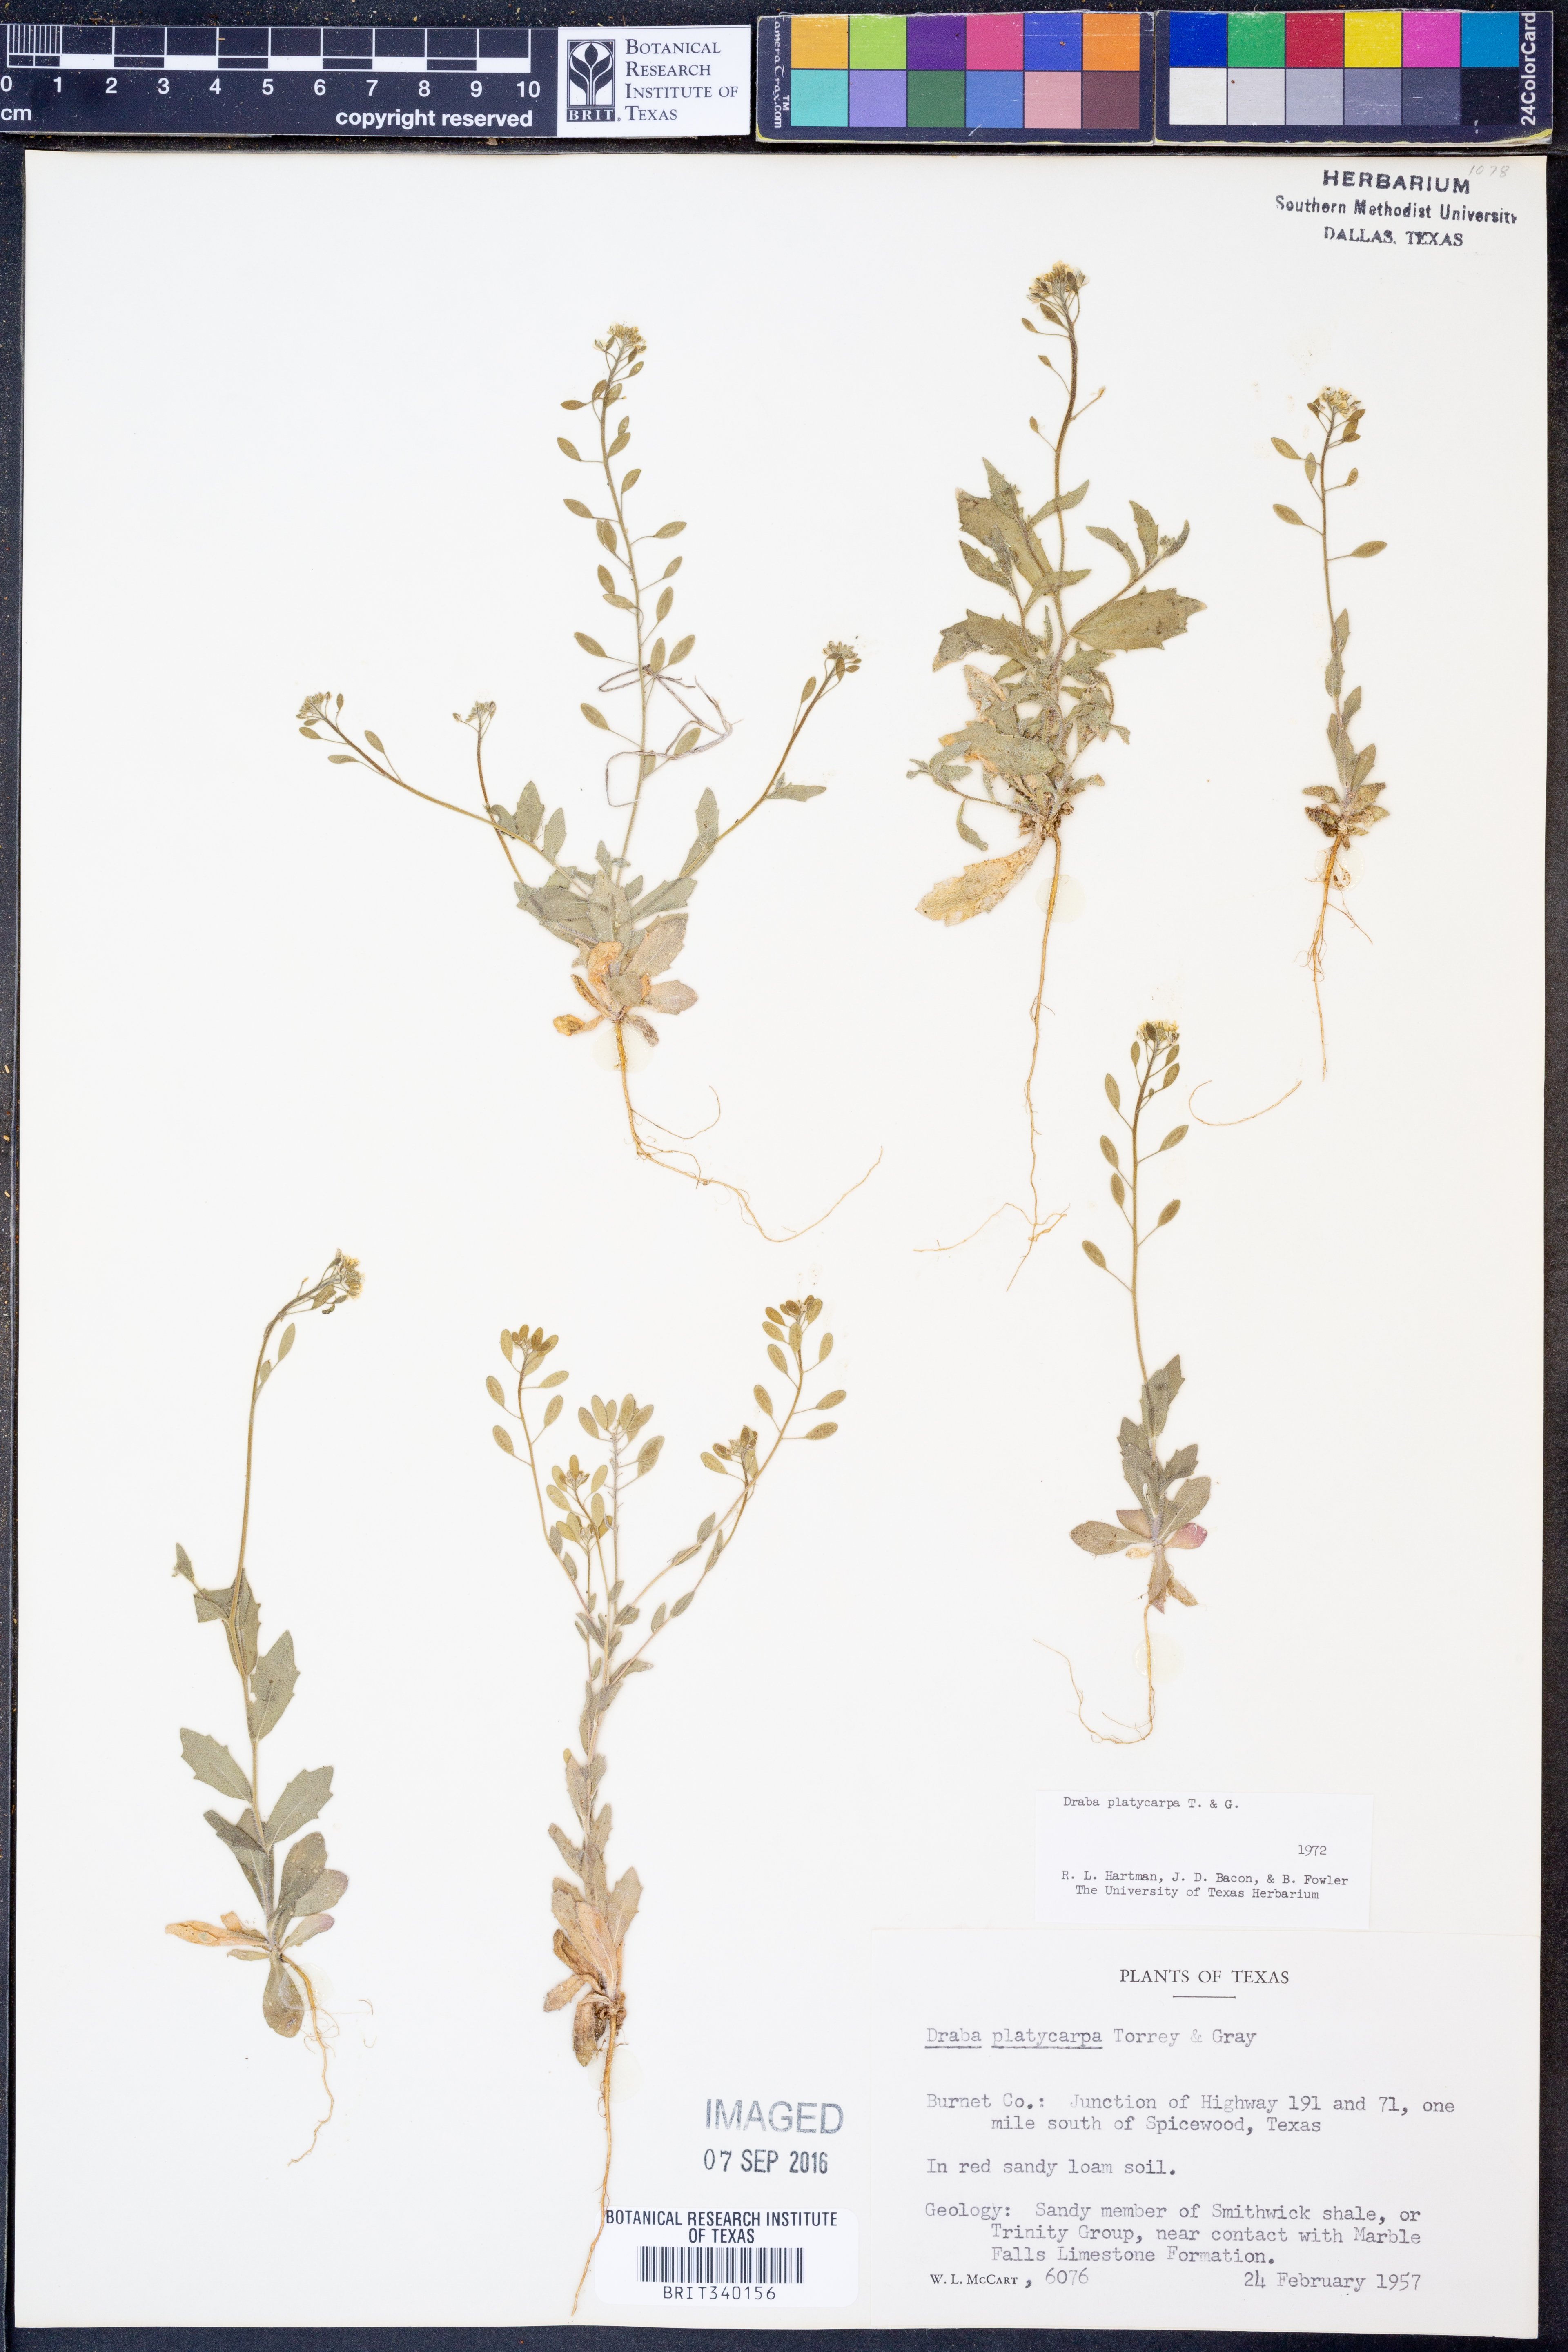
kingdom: Plantae
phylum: Tracheophyta
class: Magnoliopsida
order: Brassicales
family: Brassicaceae
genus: Tomostima
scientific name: Tomostima platycarpa
